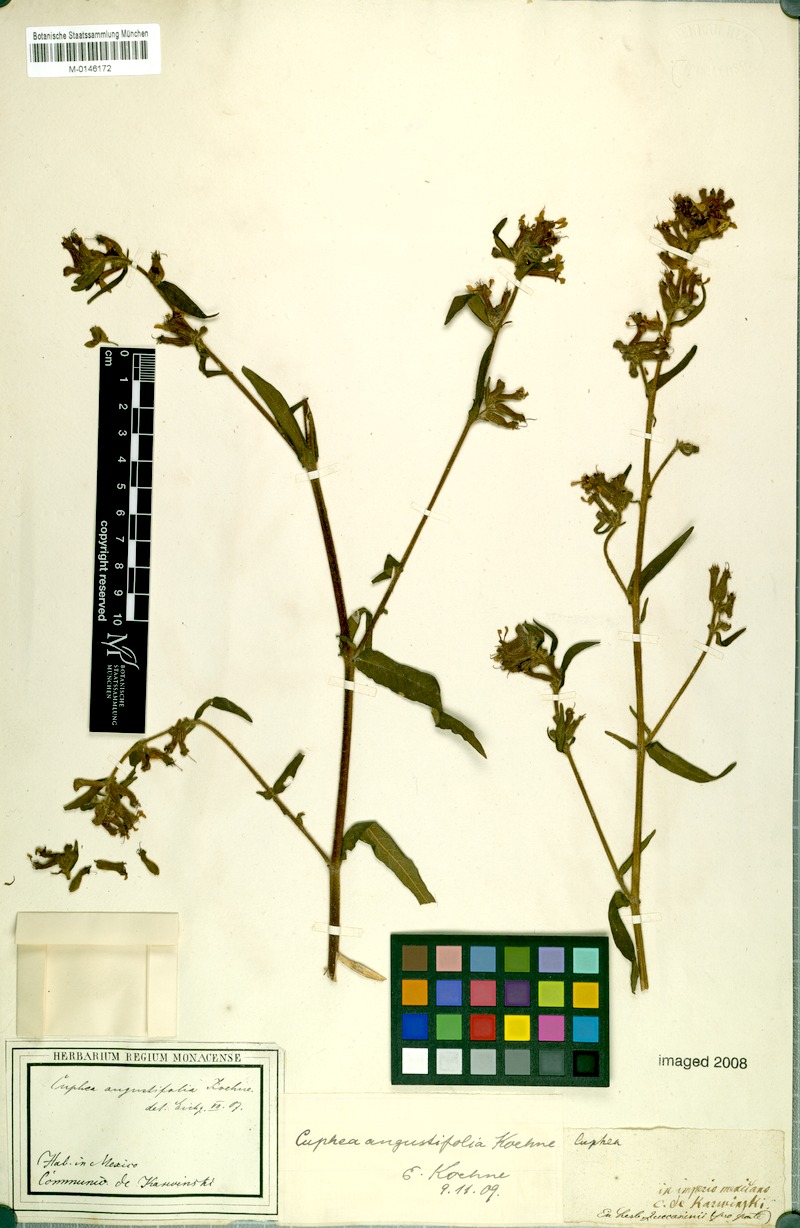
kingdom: Plantae
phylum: Tracheophyta
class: Magnoliopsida
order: Myrtales
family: Lythraceae
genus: Cuphea
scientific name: Cuphea angustifolia
